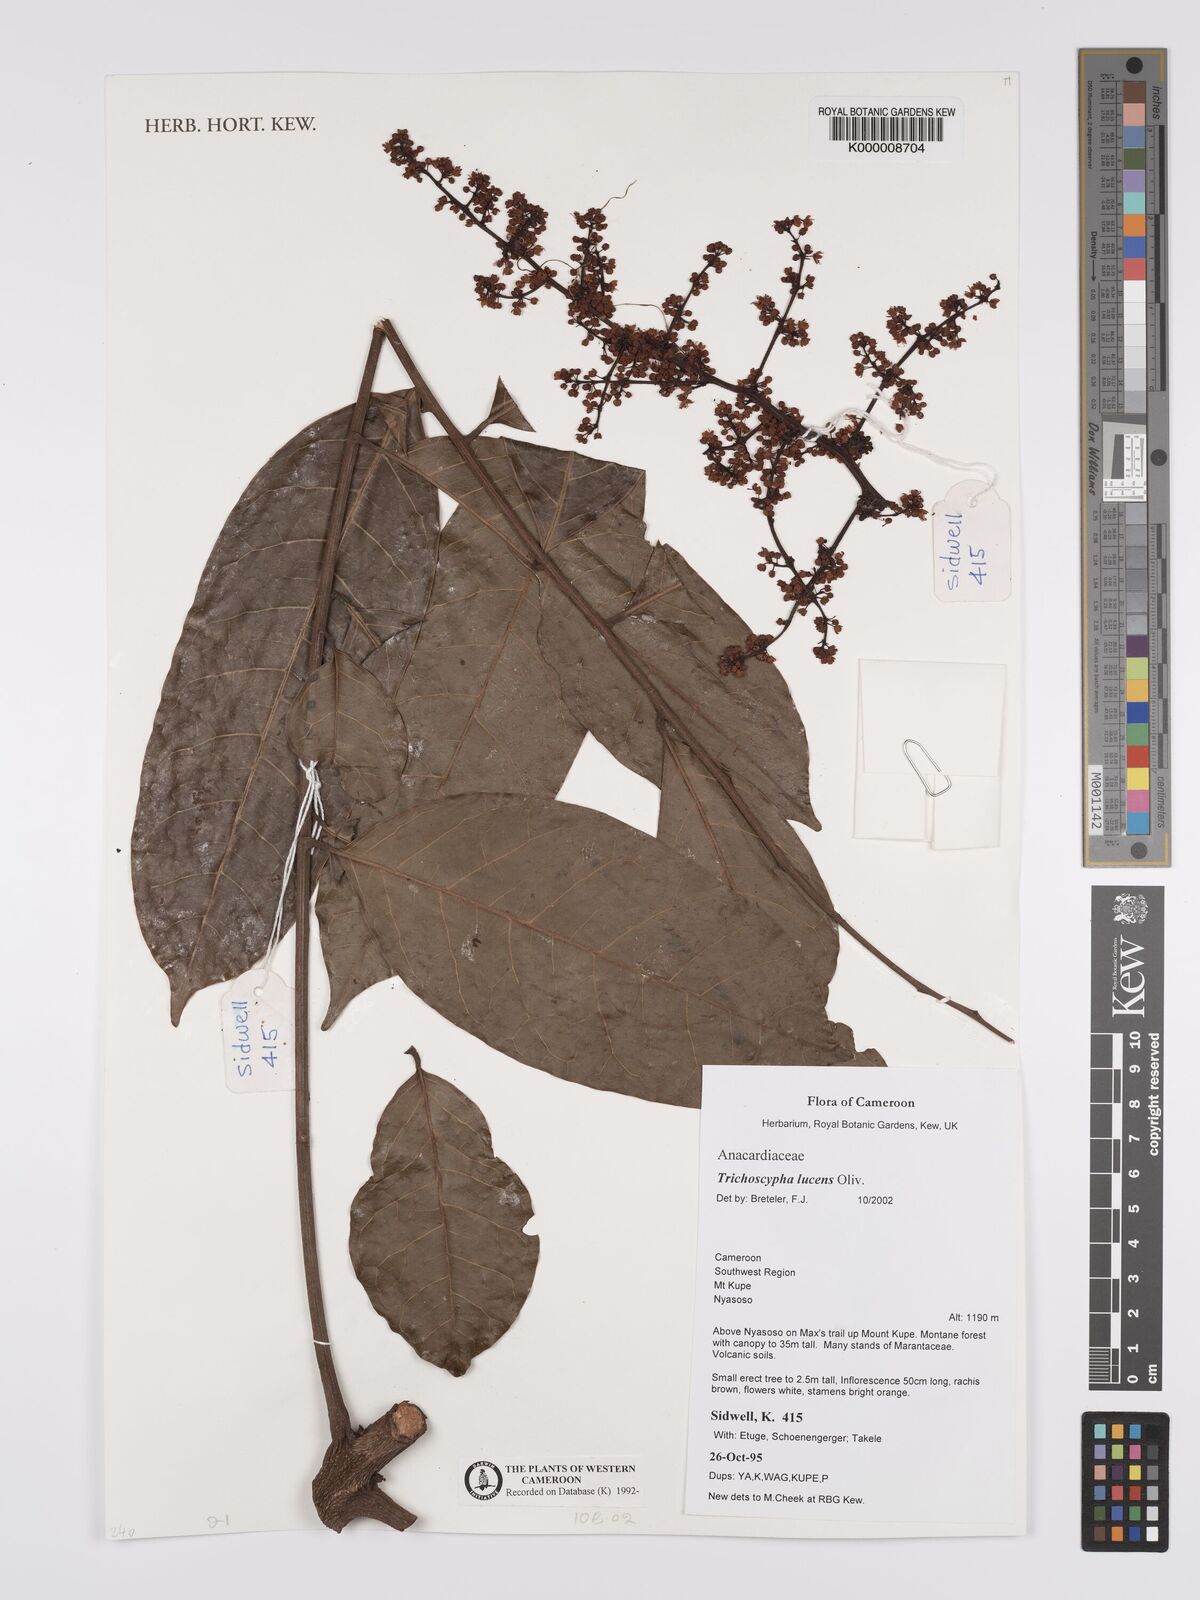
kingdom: Plantae
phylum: Tracheophyta
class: Magnoliopsida
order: Sapindales
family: Anacardiaceae
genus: Trichoscypha
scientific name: Trichoscypha lucens
